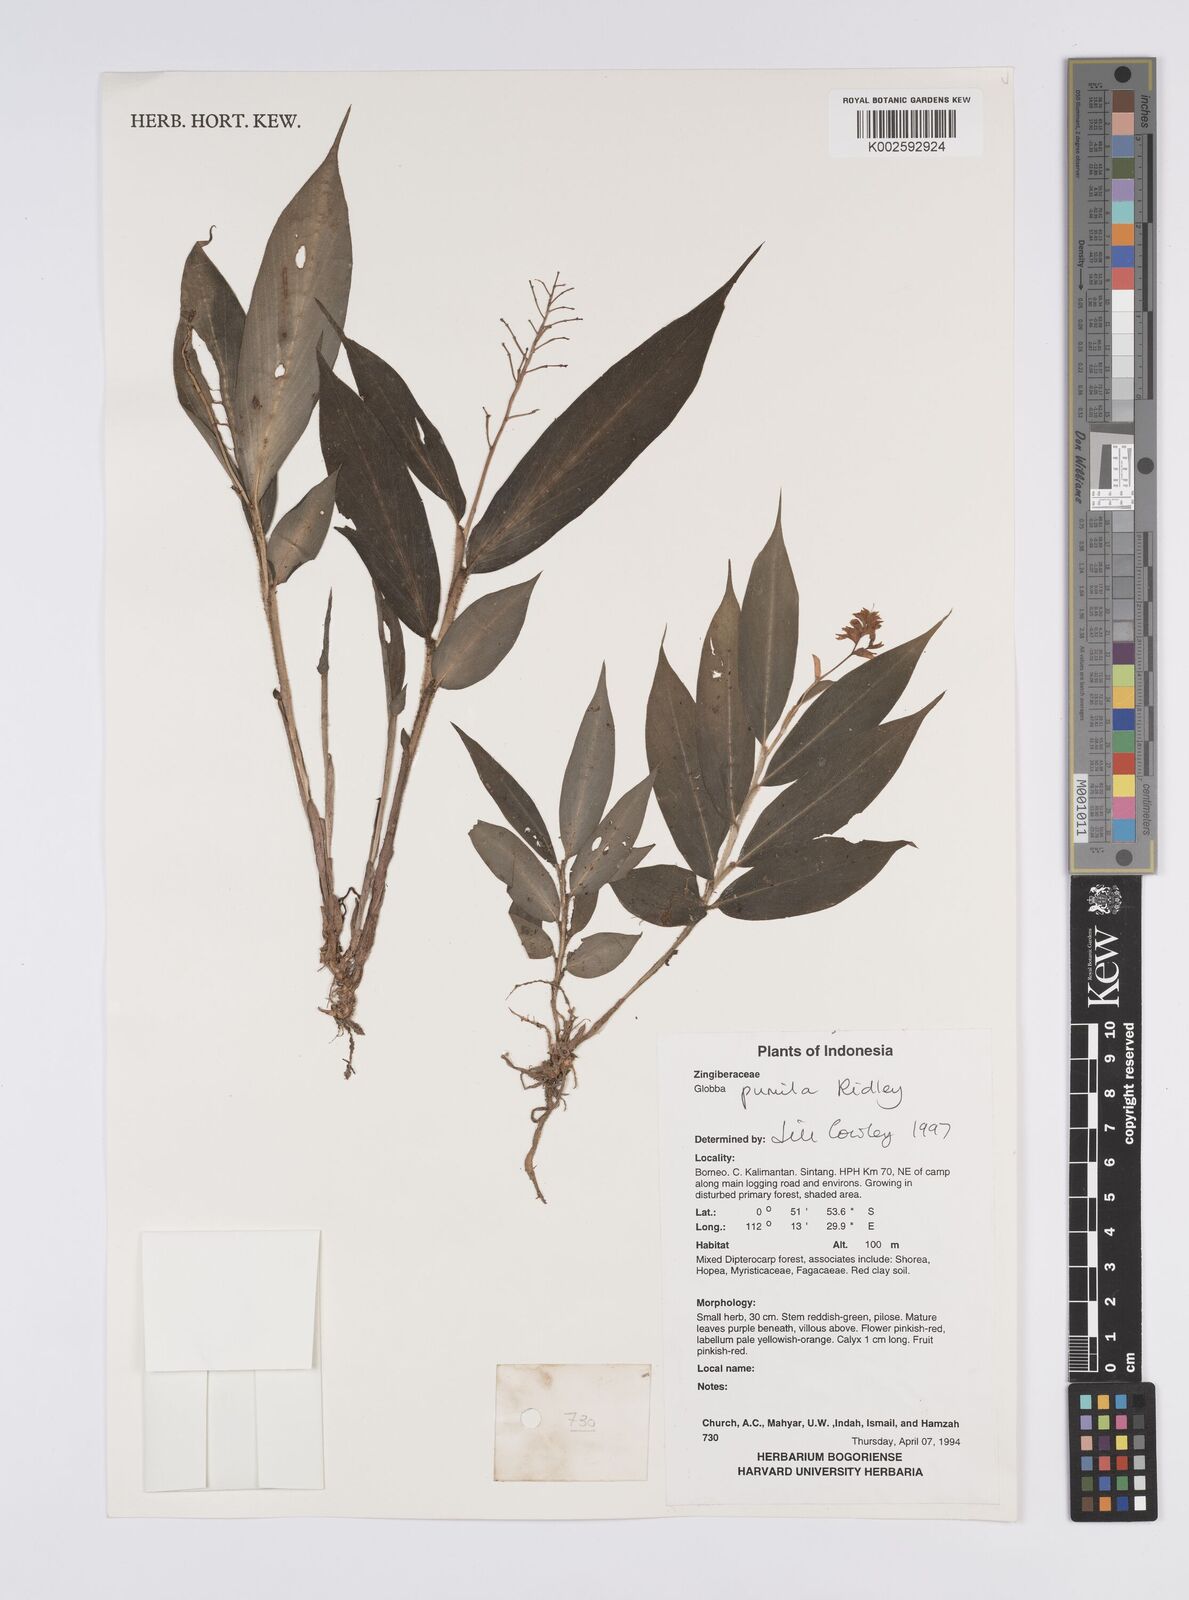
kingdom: Plantae
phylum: Tracheophyta
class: Liliopsida
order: Zingiberales
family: Zingiberaceae
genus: Globba
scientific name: Globba pumila
